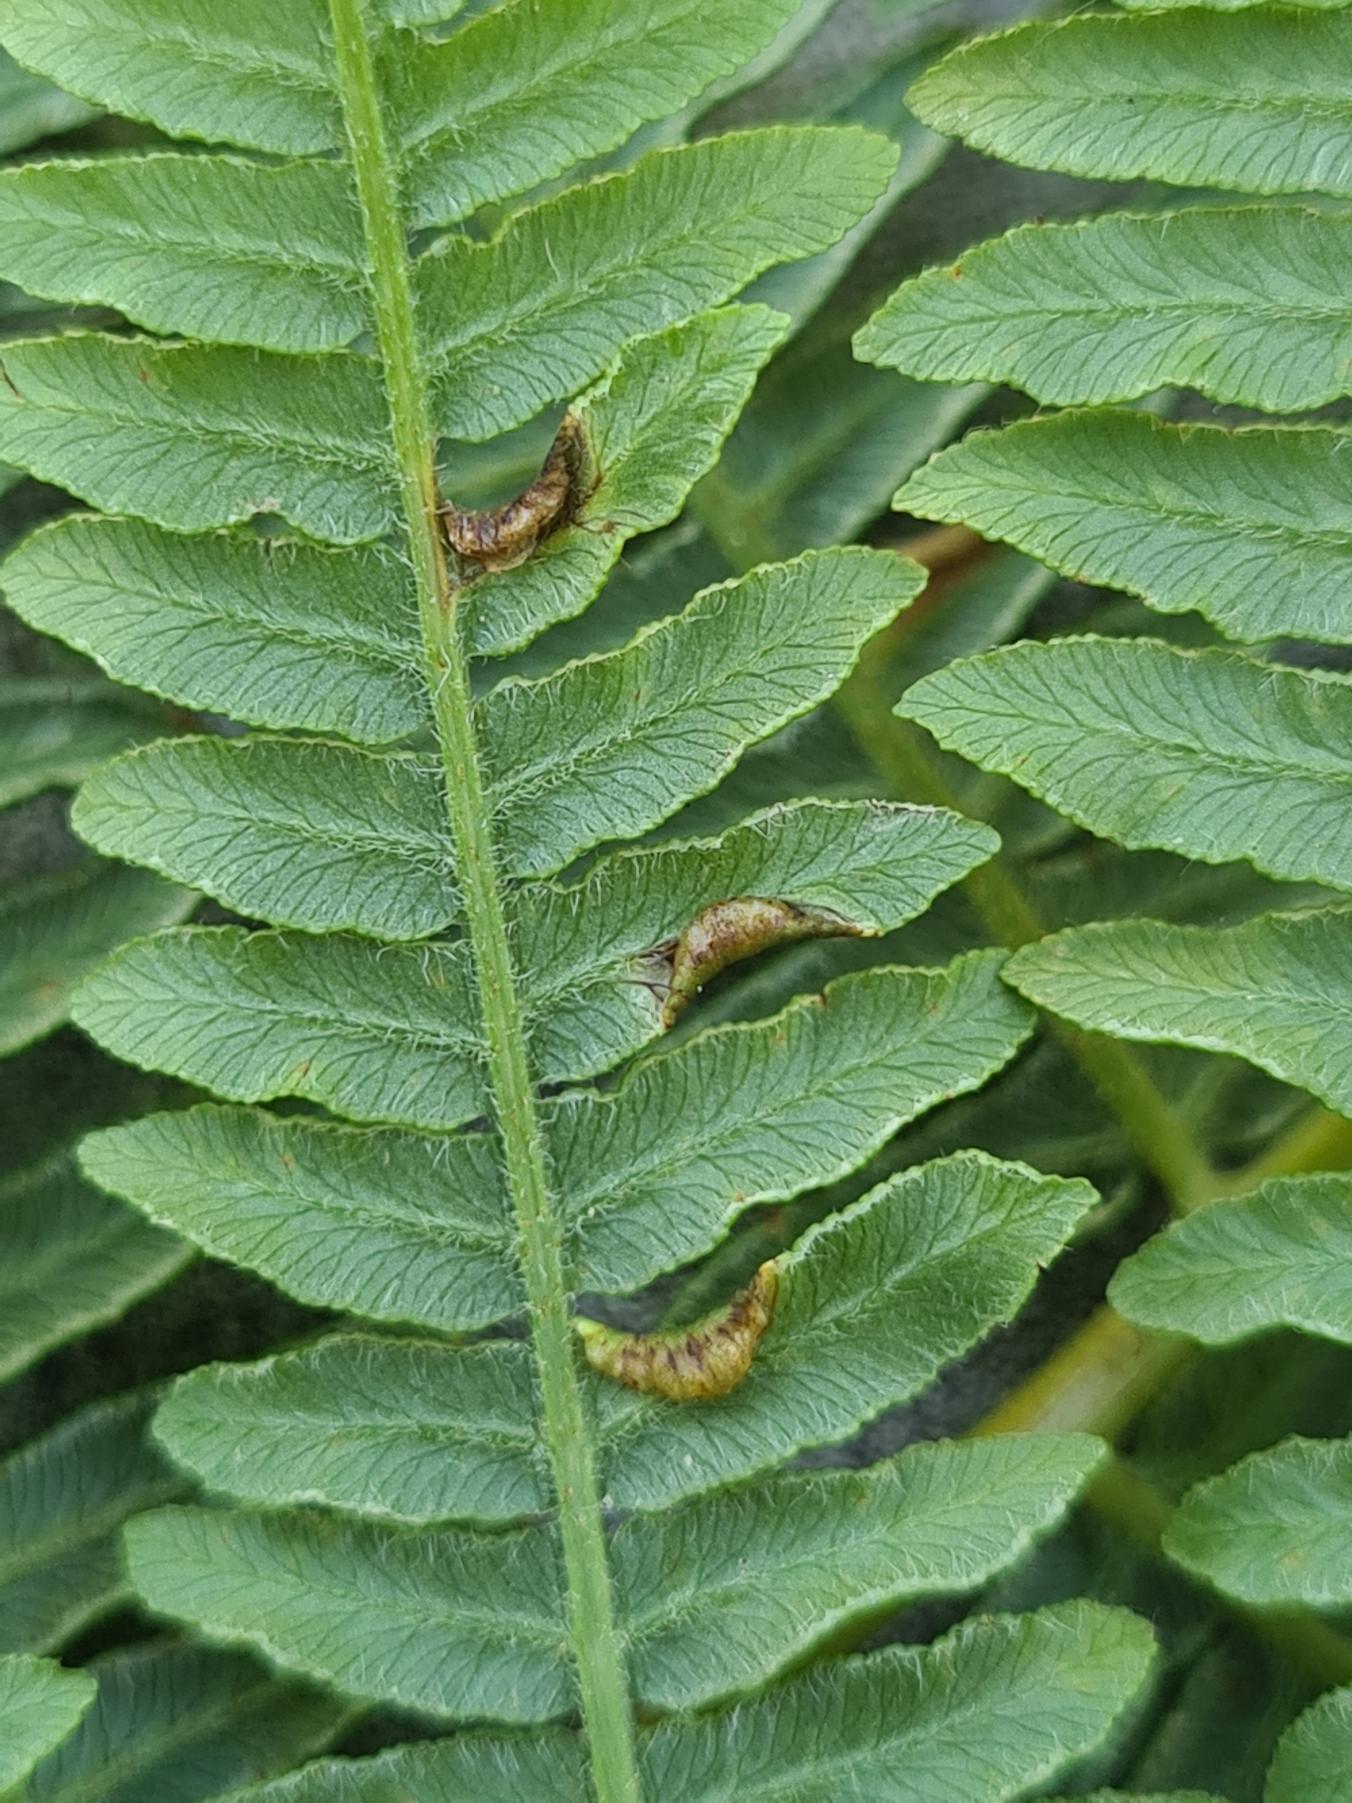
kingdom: Animalia
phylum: Arthropoda
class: Insecta
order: Diptera
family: Cecidomyiidae
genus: Dasineura
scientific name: Dasineura pteridicola
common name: Hvid ørnebregnegalmyg
